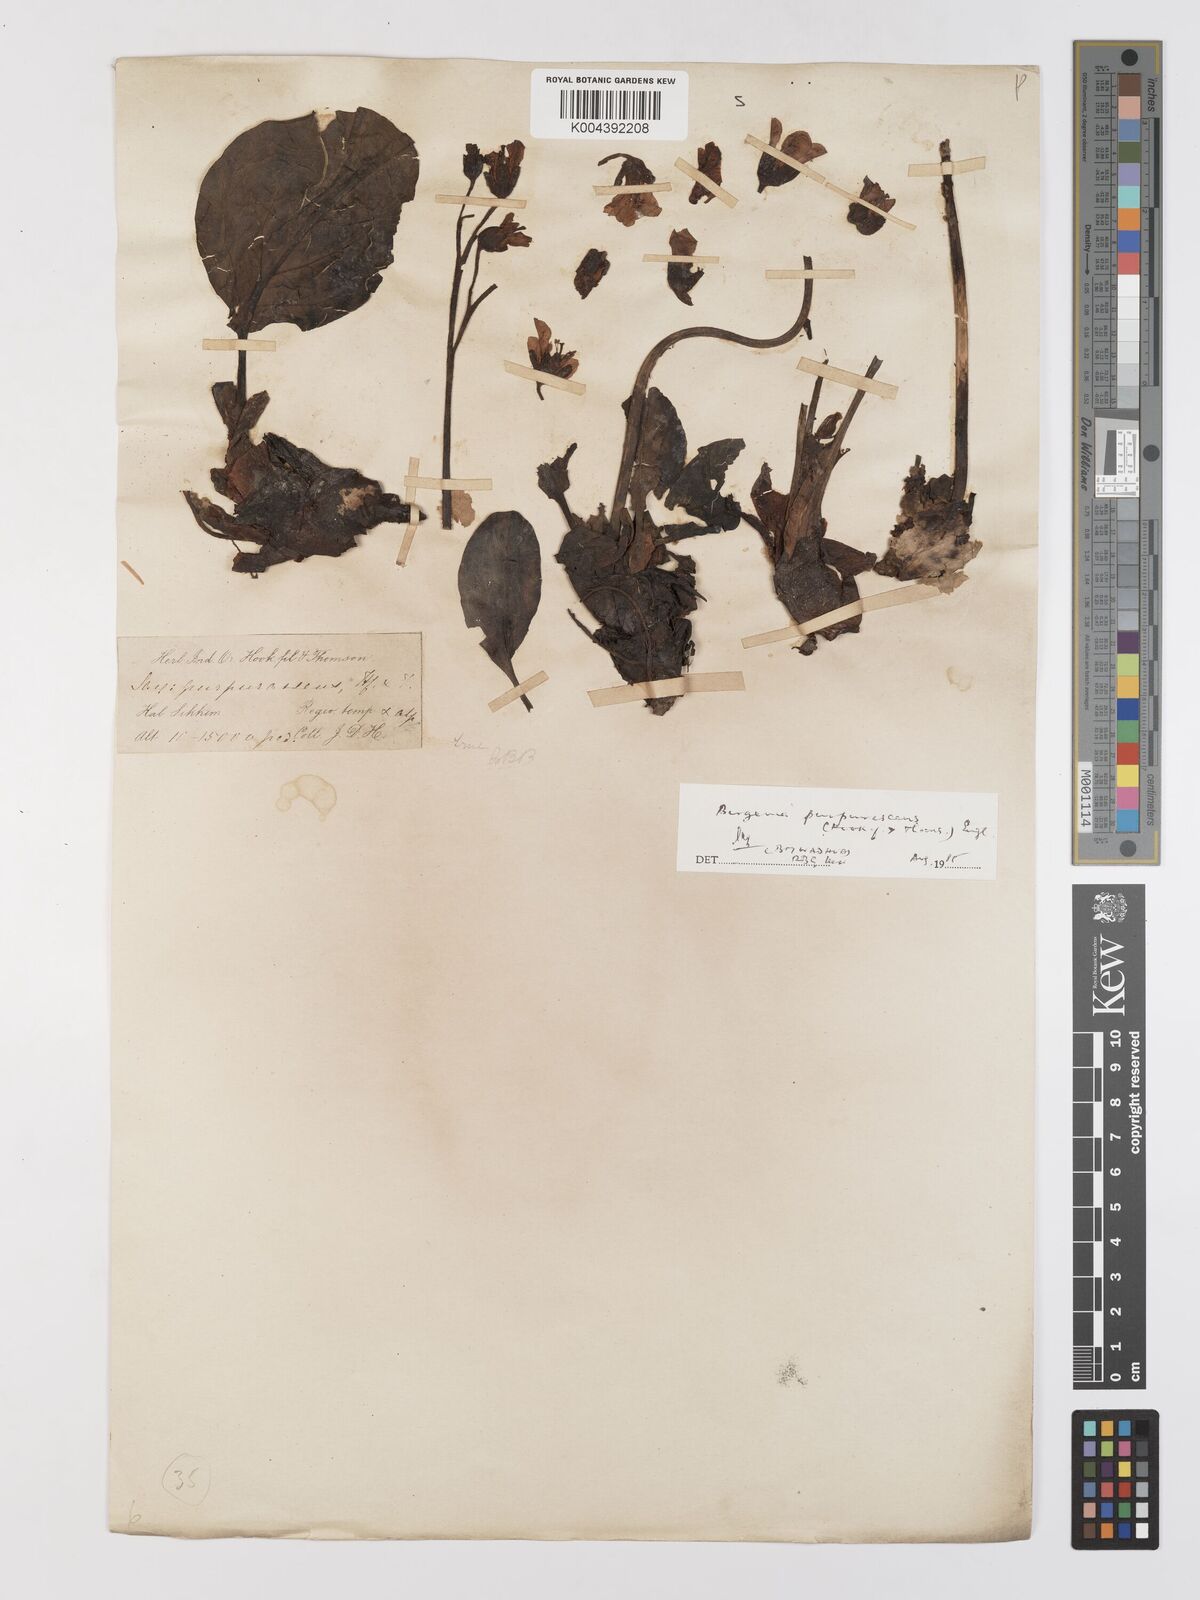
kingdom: Plantae
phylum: Tracheophyta
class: Magnoliopsida
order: Saxifragales
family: Saxifragaceae
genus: Bergenia
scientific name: Bergenia purpurascens
